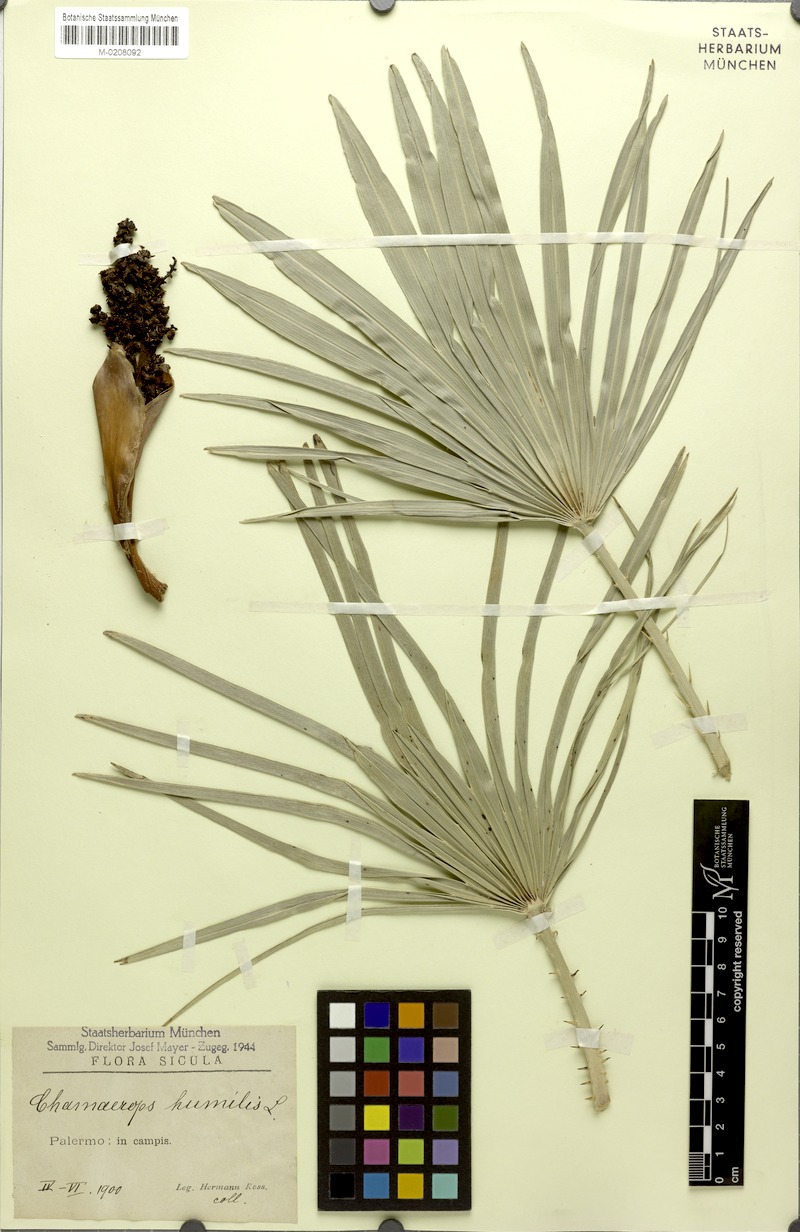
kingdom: Plantae
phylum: Tracheophyta
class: Liliopsida
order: Arecales
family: Arecaceae
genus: Chamaerops
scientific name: Chamaerops humilis
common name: Dwarf fan palm
